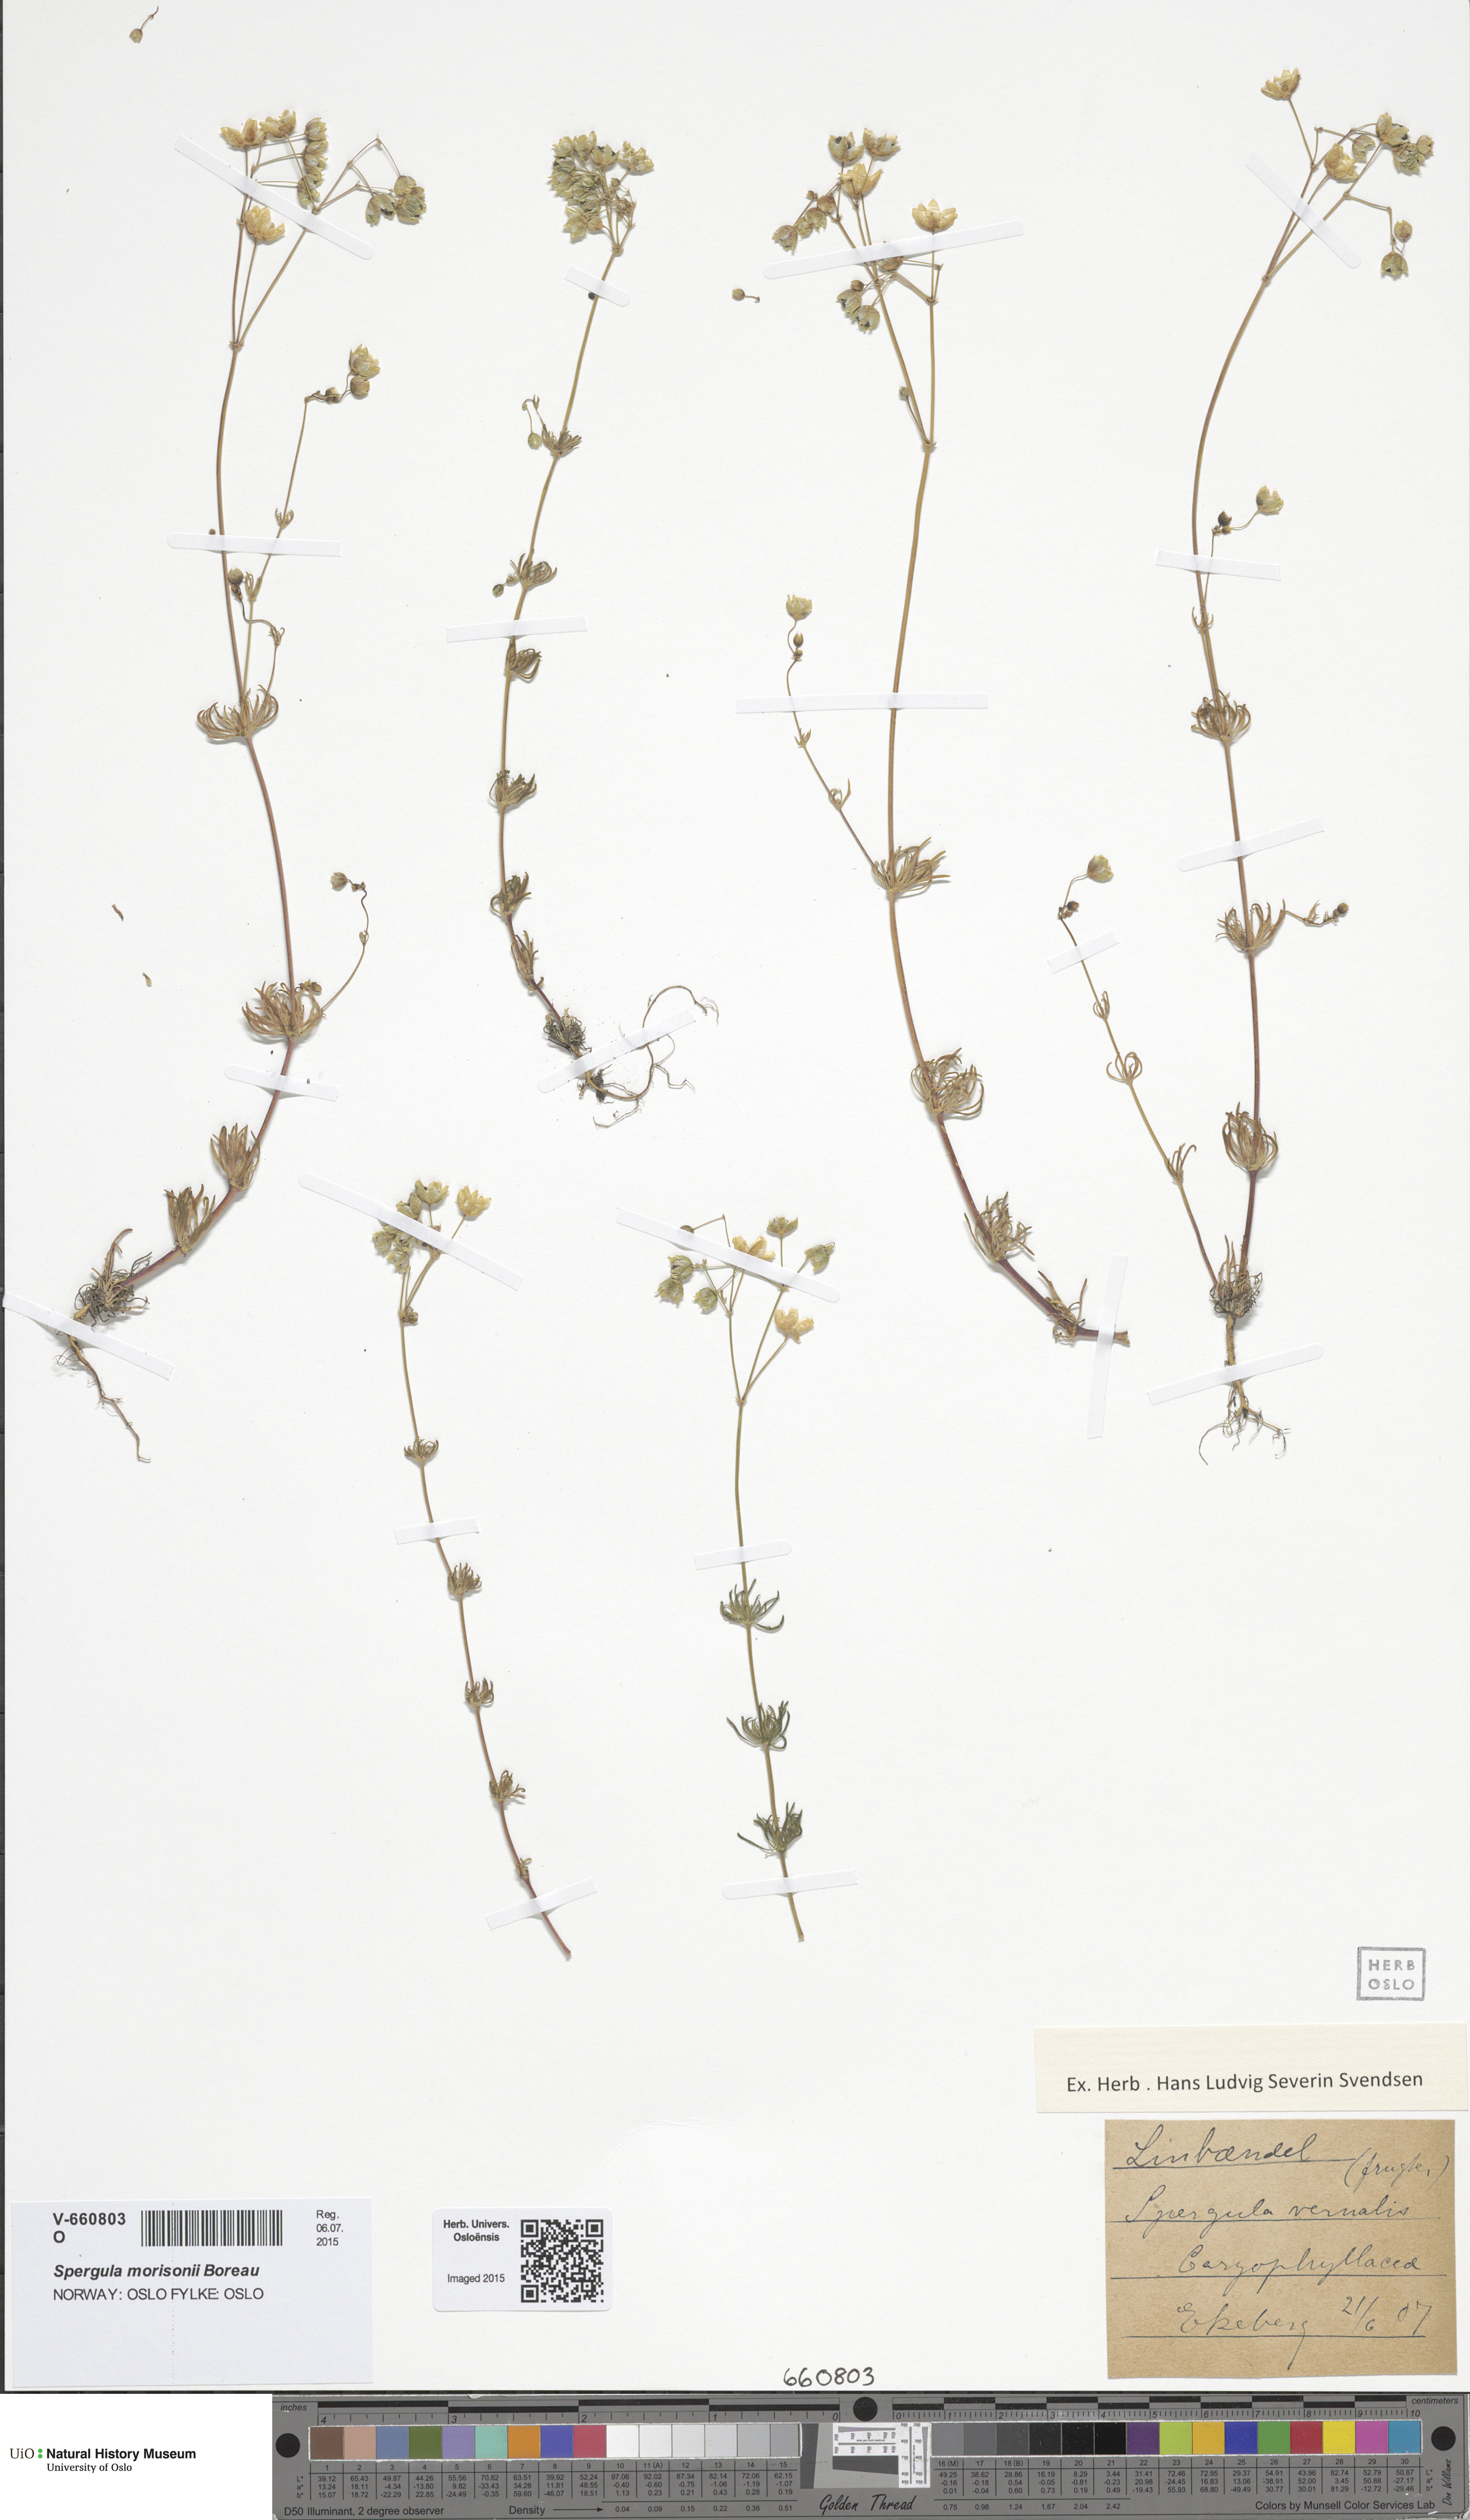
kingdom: Plantae
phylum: Tracheophyta
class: Magnoliopsida
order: Caryophyllales
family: Caryophyllaceae
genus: Spergula
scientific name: Spergula morisonii
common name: Pearlwort spurrey
